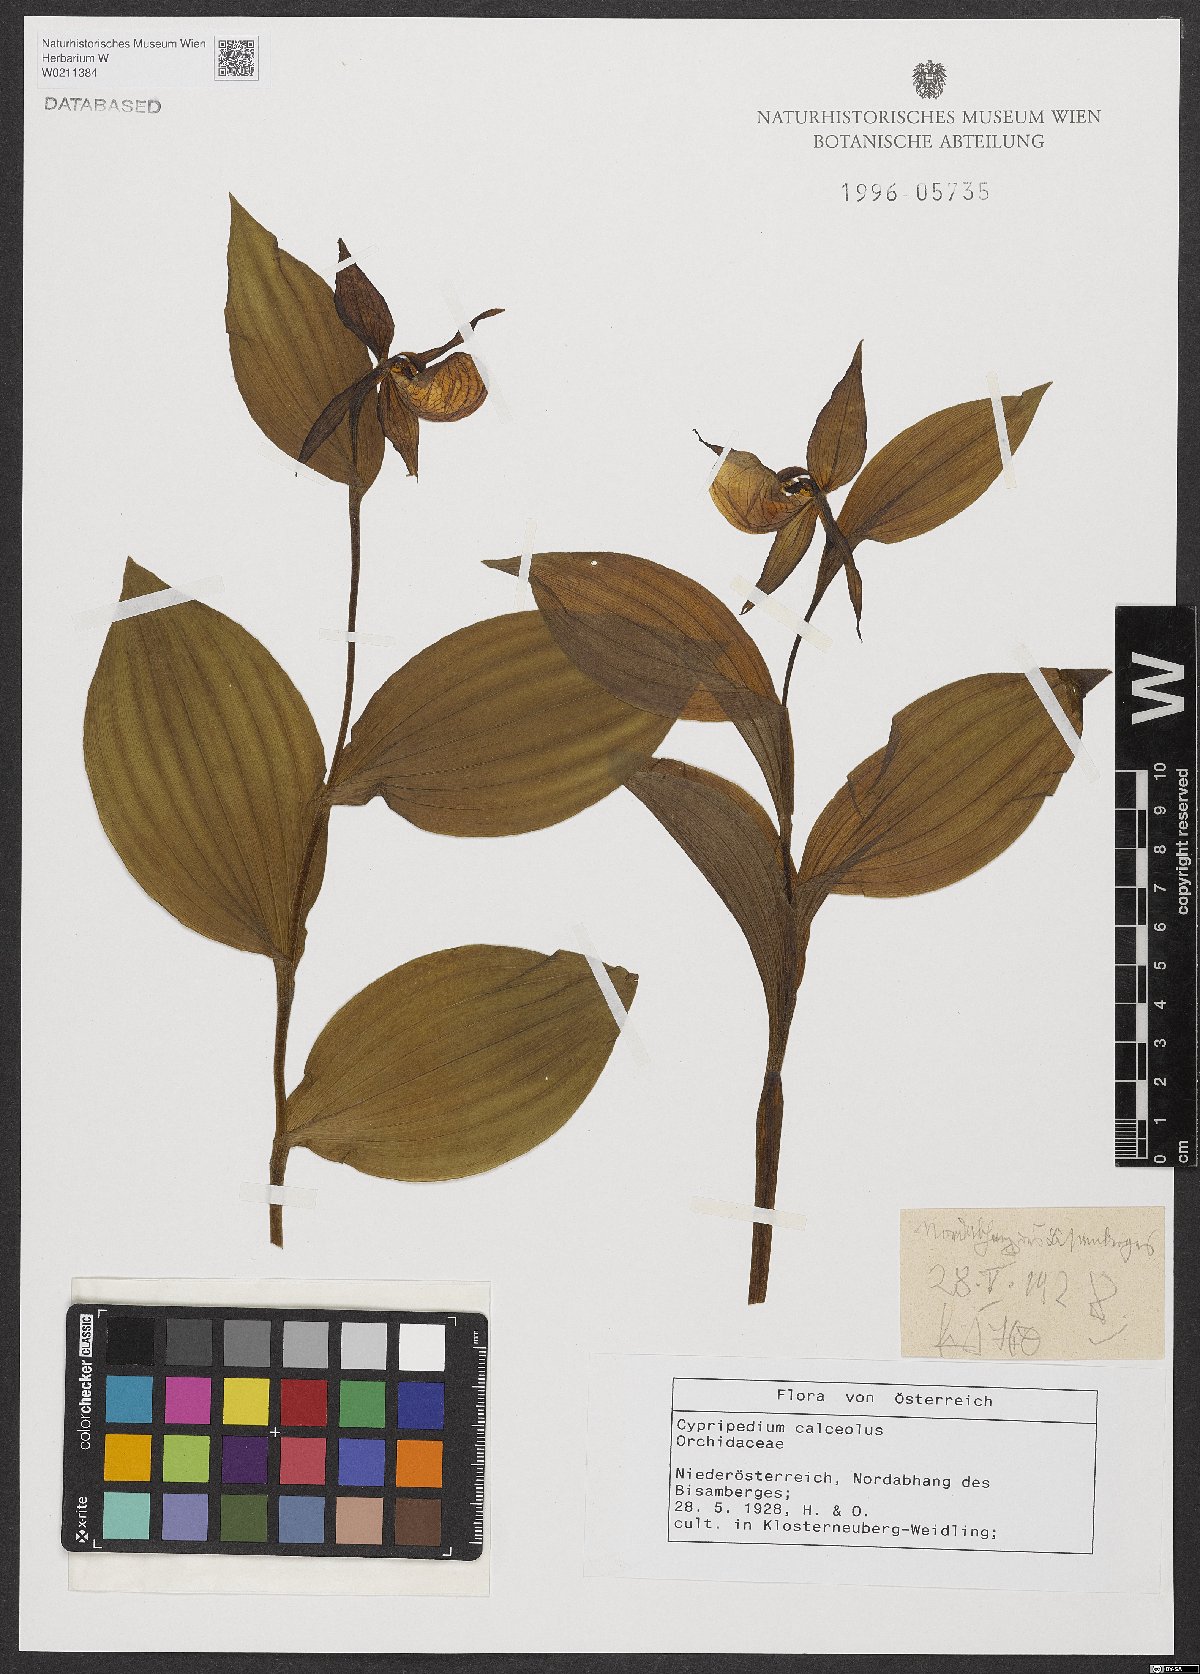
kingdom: Plantae
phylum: Tracheophyta
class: Liliopsida
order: Asparagales
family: Orchidaceae
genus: Cypripedium
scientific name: Cypripedium calceolus
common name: Lady's-slipper
